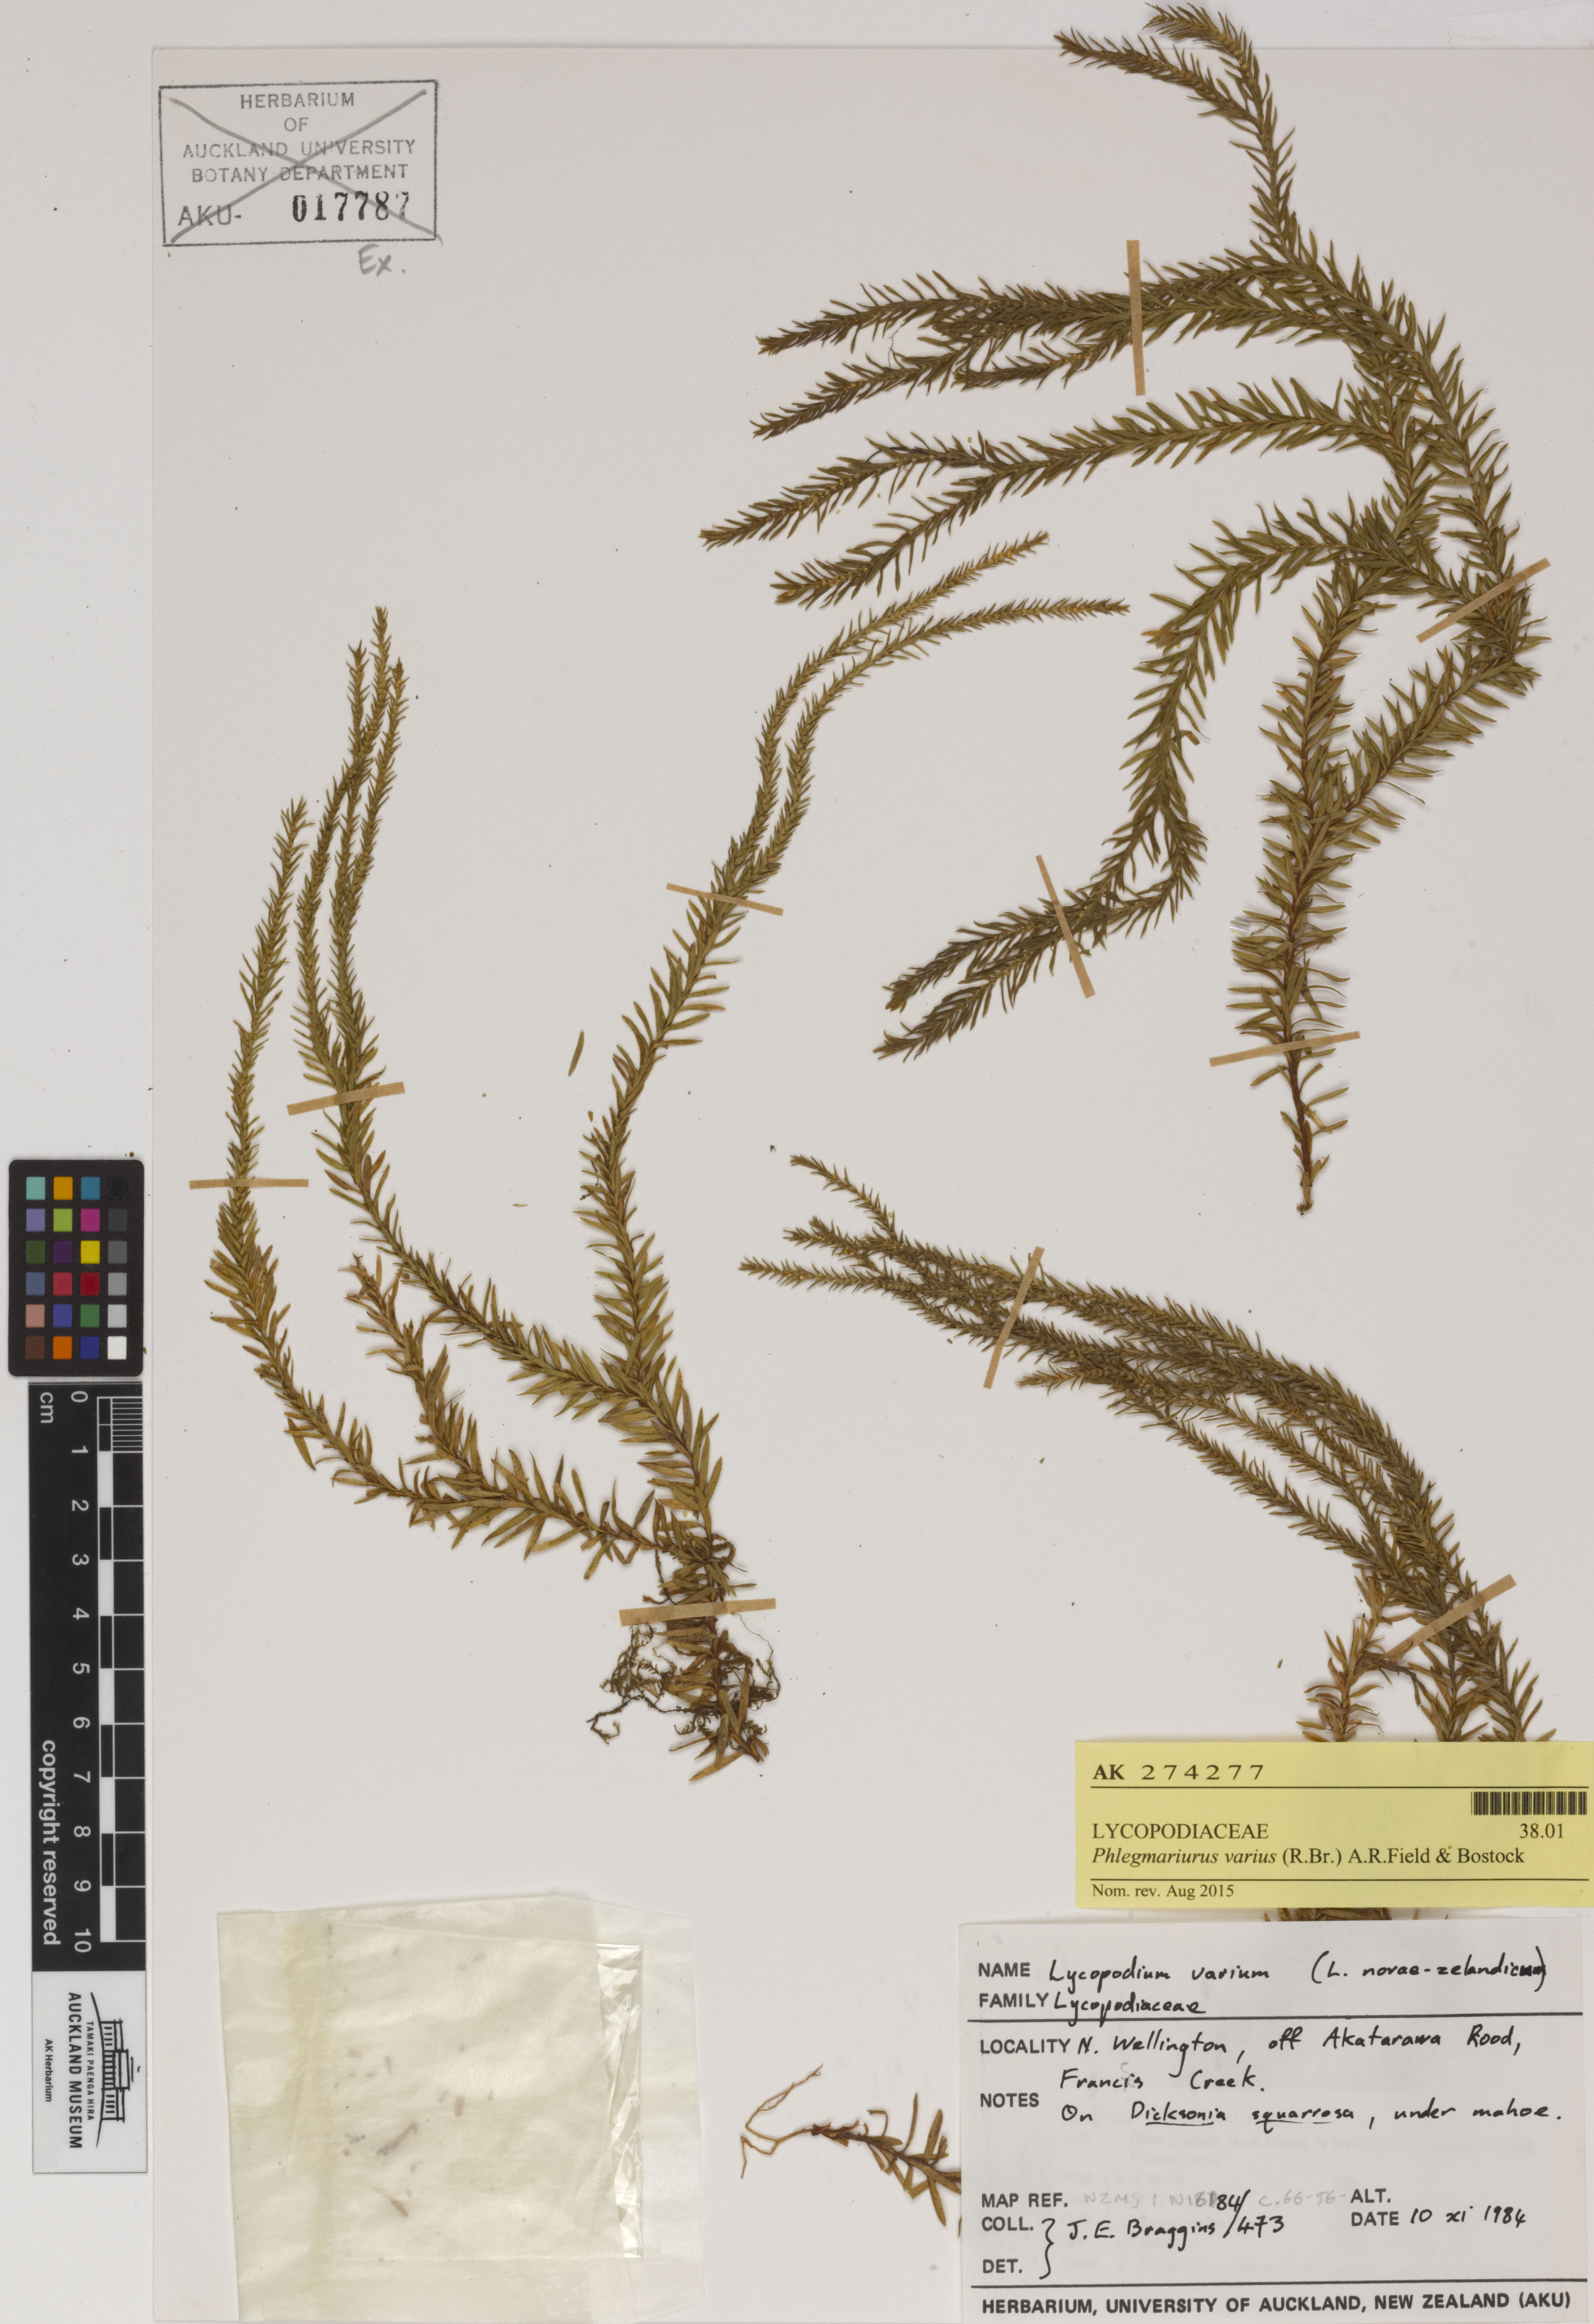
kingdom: Plantae
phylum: Tracheophyta
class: Lycopodiopsida
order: Lycopodiales
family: Lycopodiaceae
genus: Phlegmariurus
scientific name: Phlegmariurus varius
